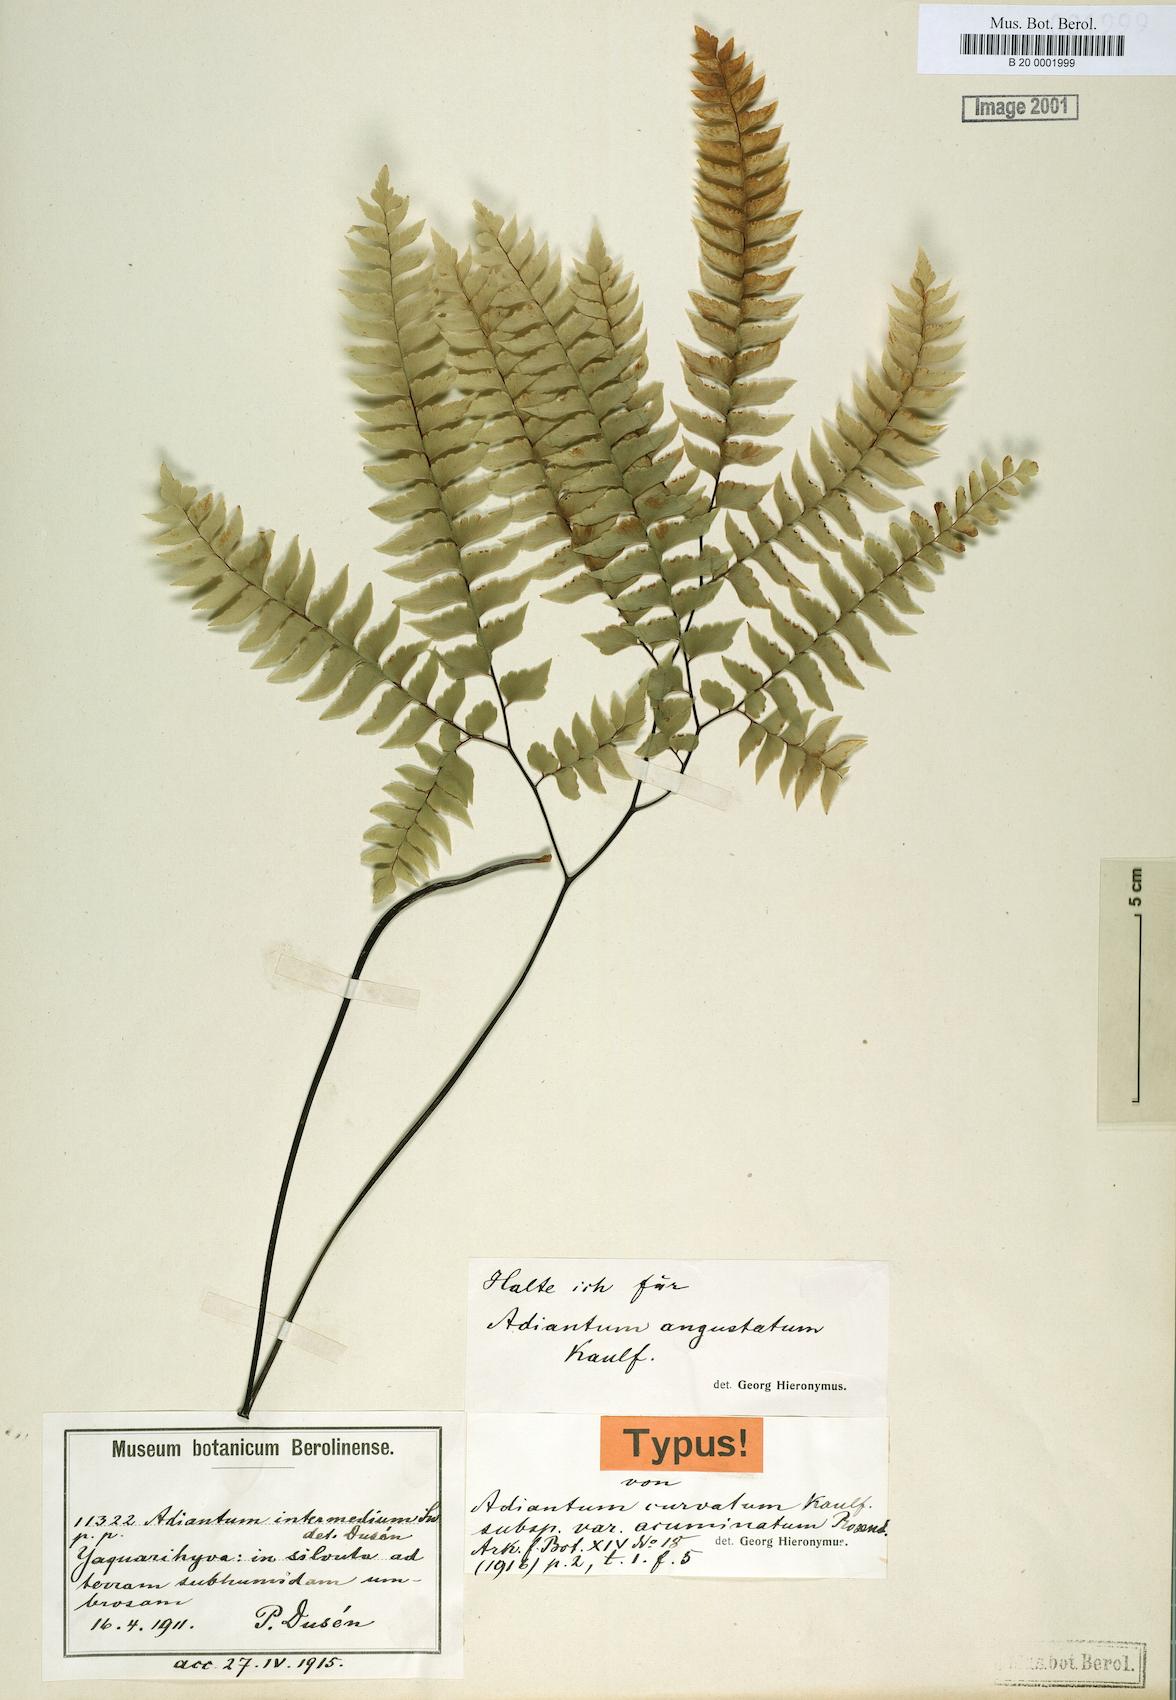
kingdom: Plantae
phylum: Tracheophyta
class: Polypodiopsida
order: Polypodiales
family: Pteridaceae
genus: Adiantum
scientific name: Adiantum curvatum
